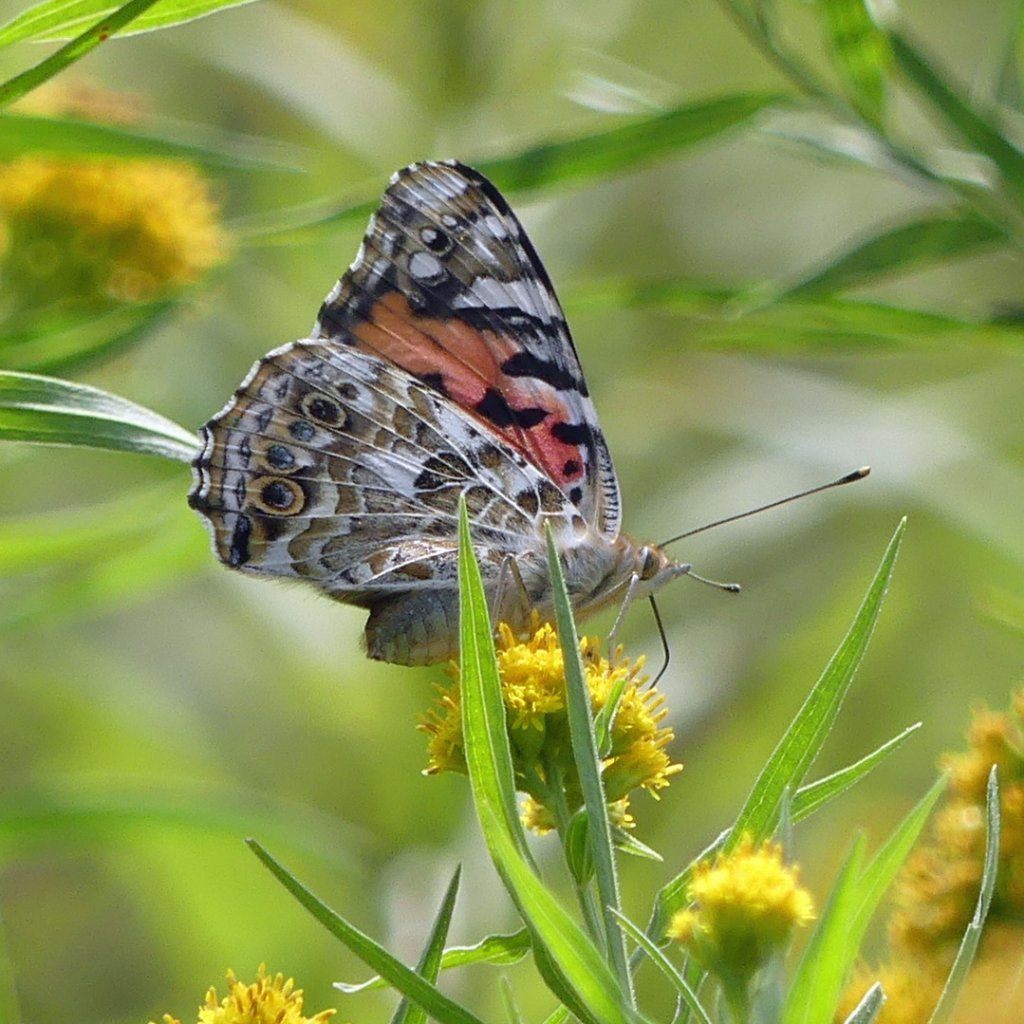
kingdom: Animalia
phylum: Arthropoda
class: Insecta
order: Lepidoptera
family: Nymphalidae
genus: Vanessa
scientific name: Vanessa cardui
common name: Painted Lady
